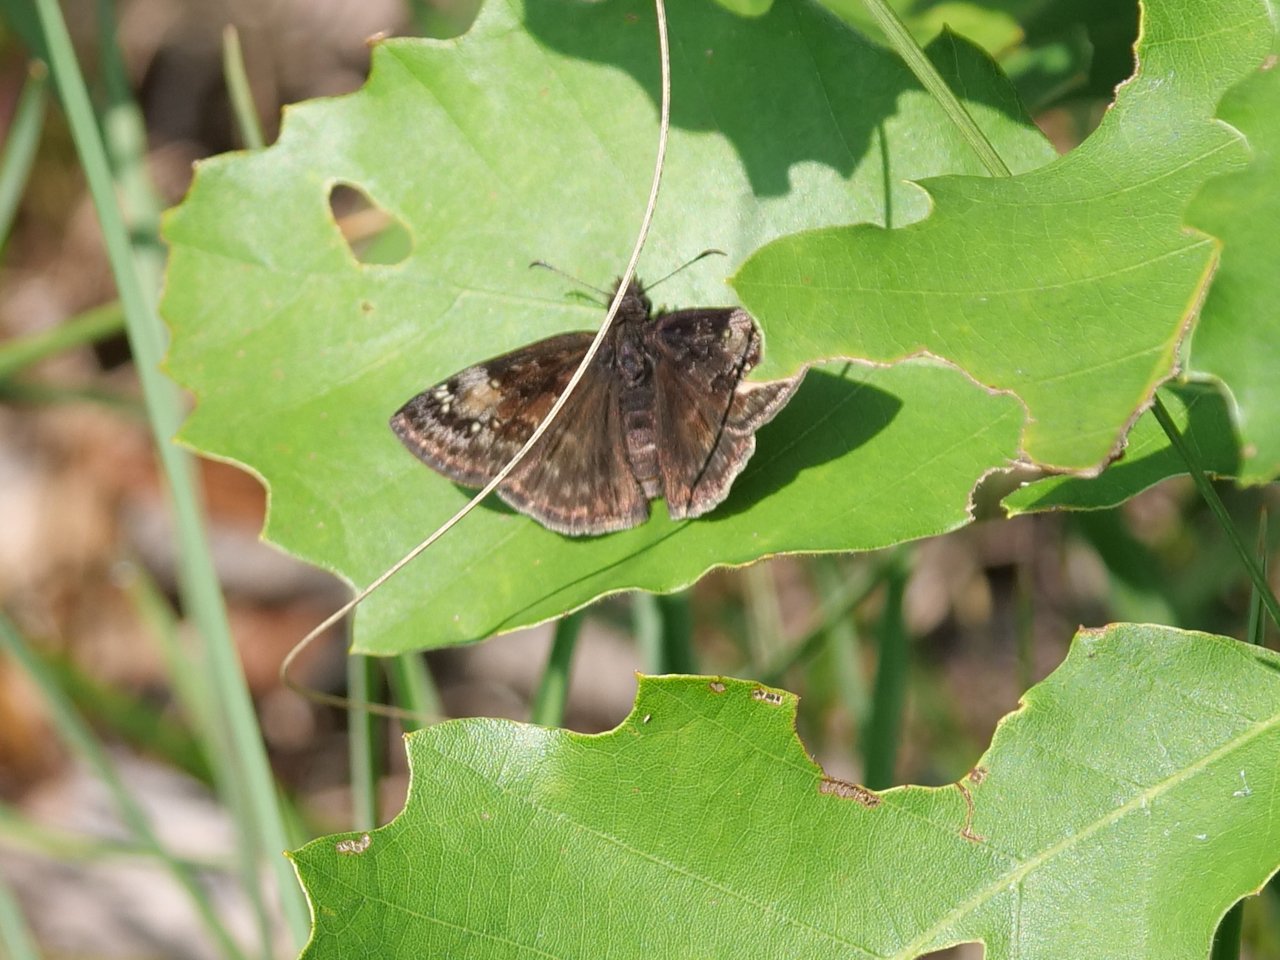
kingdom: Animalia
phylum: Arthropoda
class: Insecta
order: Lepidoptera
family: Hesperiidae
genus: Gesta
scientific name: Gesta
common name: Wild Indigo Duskywing
